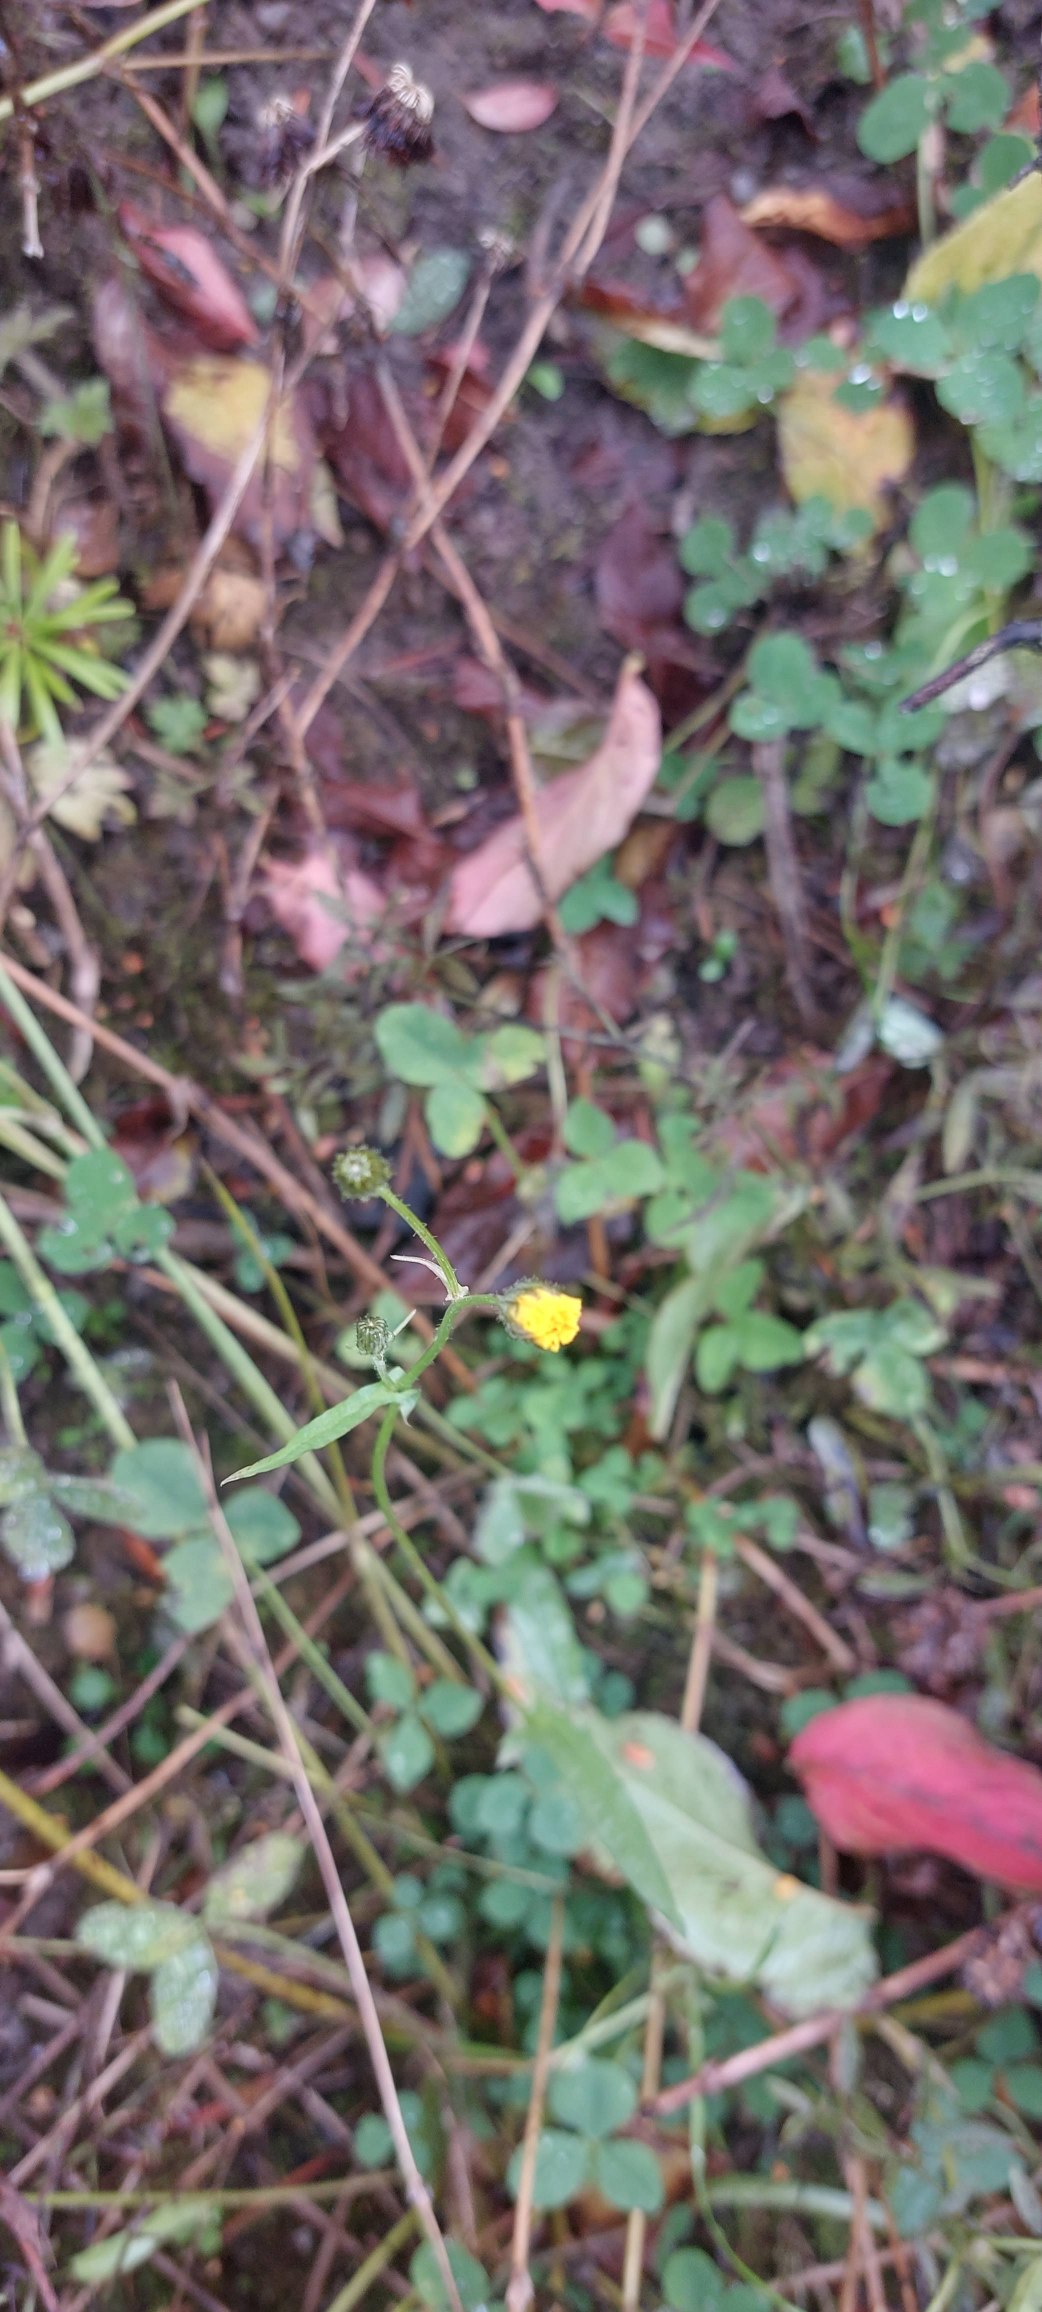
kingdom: Plantae
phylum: Tracheophyta
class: Magnoliopsida
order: Asterales
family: Asteraceae
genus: Crepis
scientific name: Crepis capillaris
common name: Grøn høgeskæg
